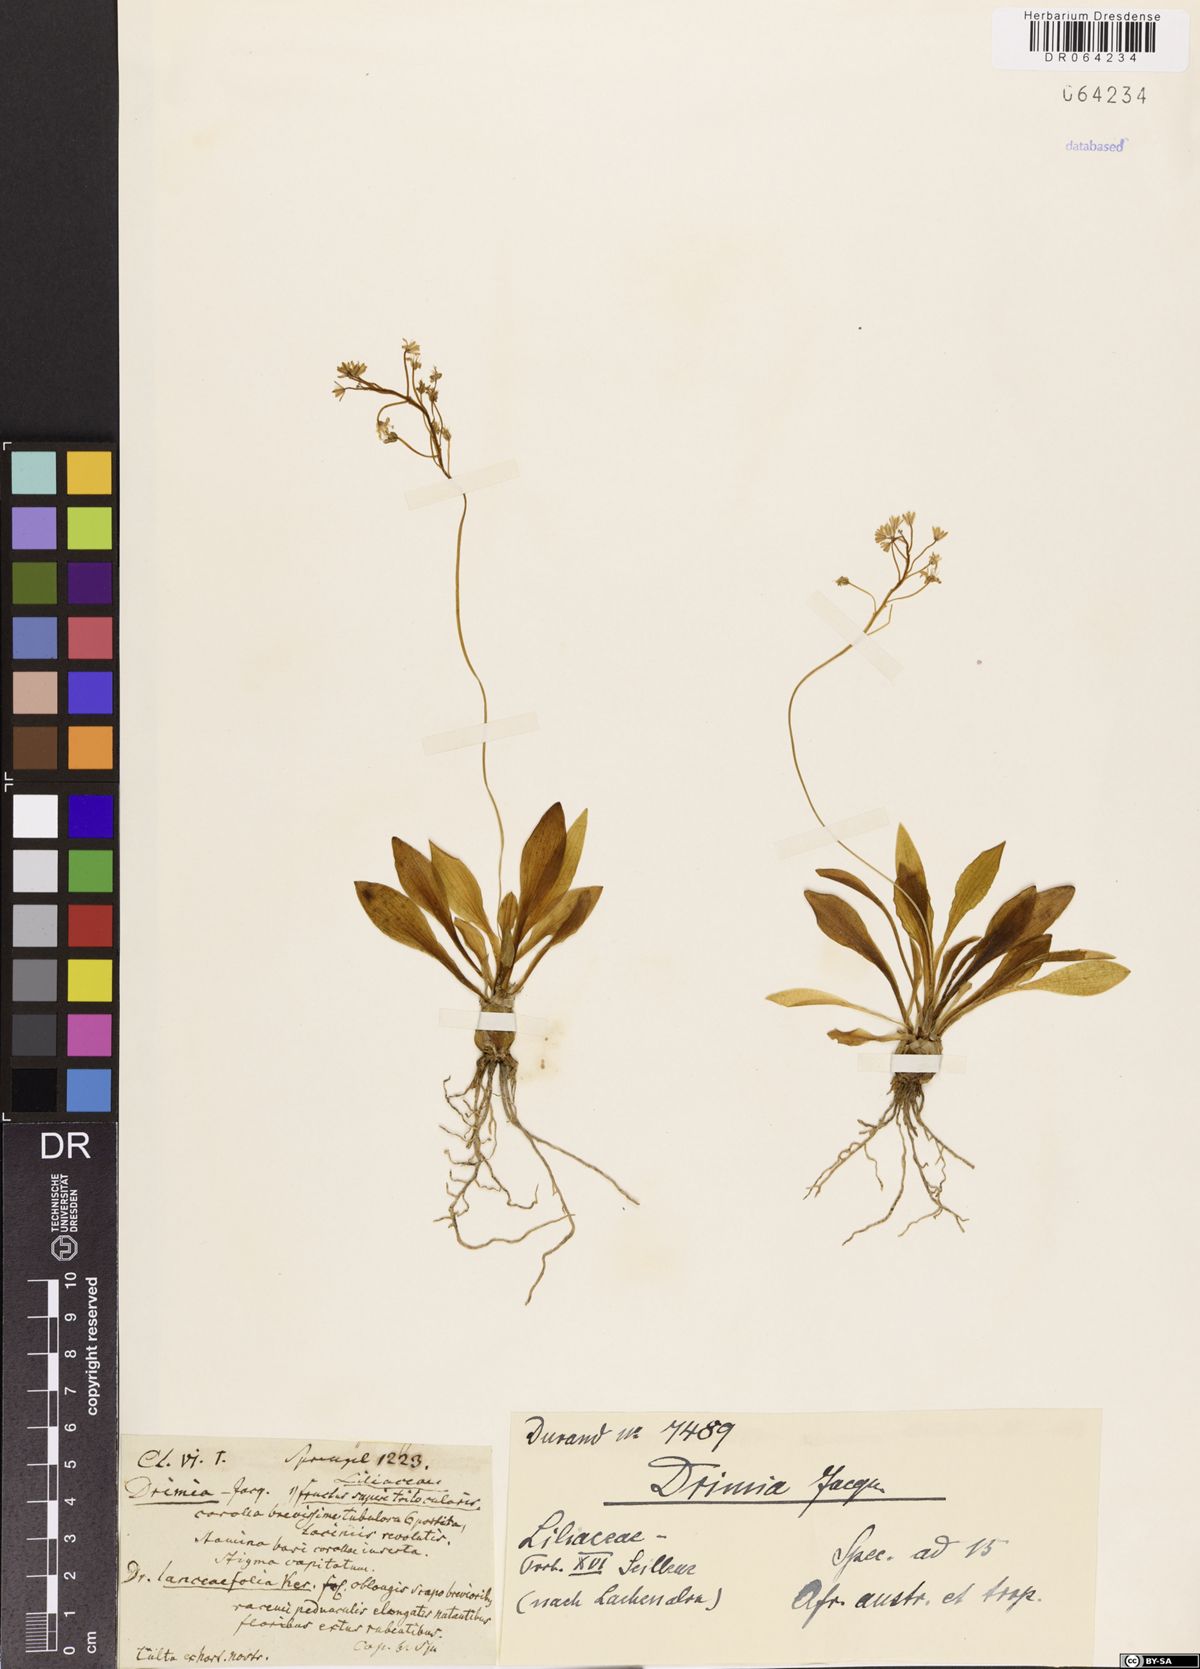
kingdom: Plantae
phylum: Tracheophyta
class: Liliopsida
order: Asparagales
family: Asparagaceae
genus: Drimia
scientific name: Drimia
